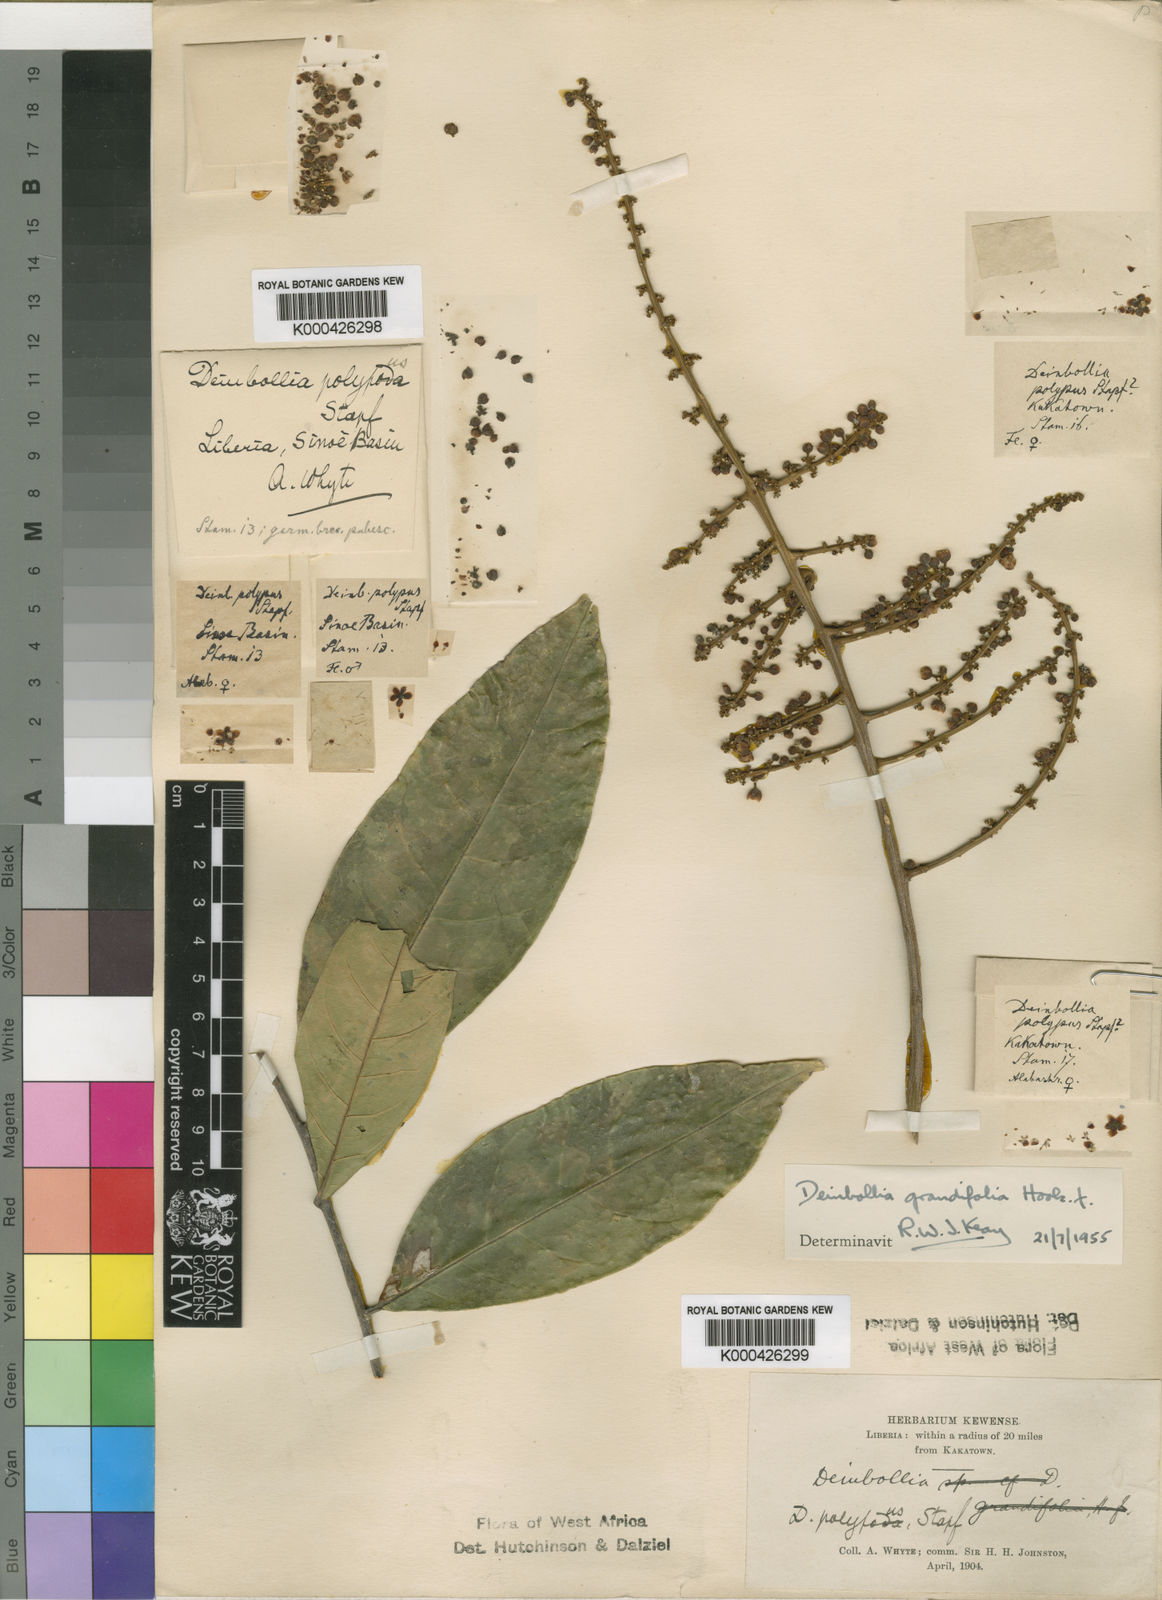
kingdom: Plantae
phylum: Tracheophyta
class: Magnoliopsida
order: Sapindales
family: Sapindaceae
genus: Deinbollia
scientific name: Deinbollia grandifolia
